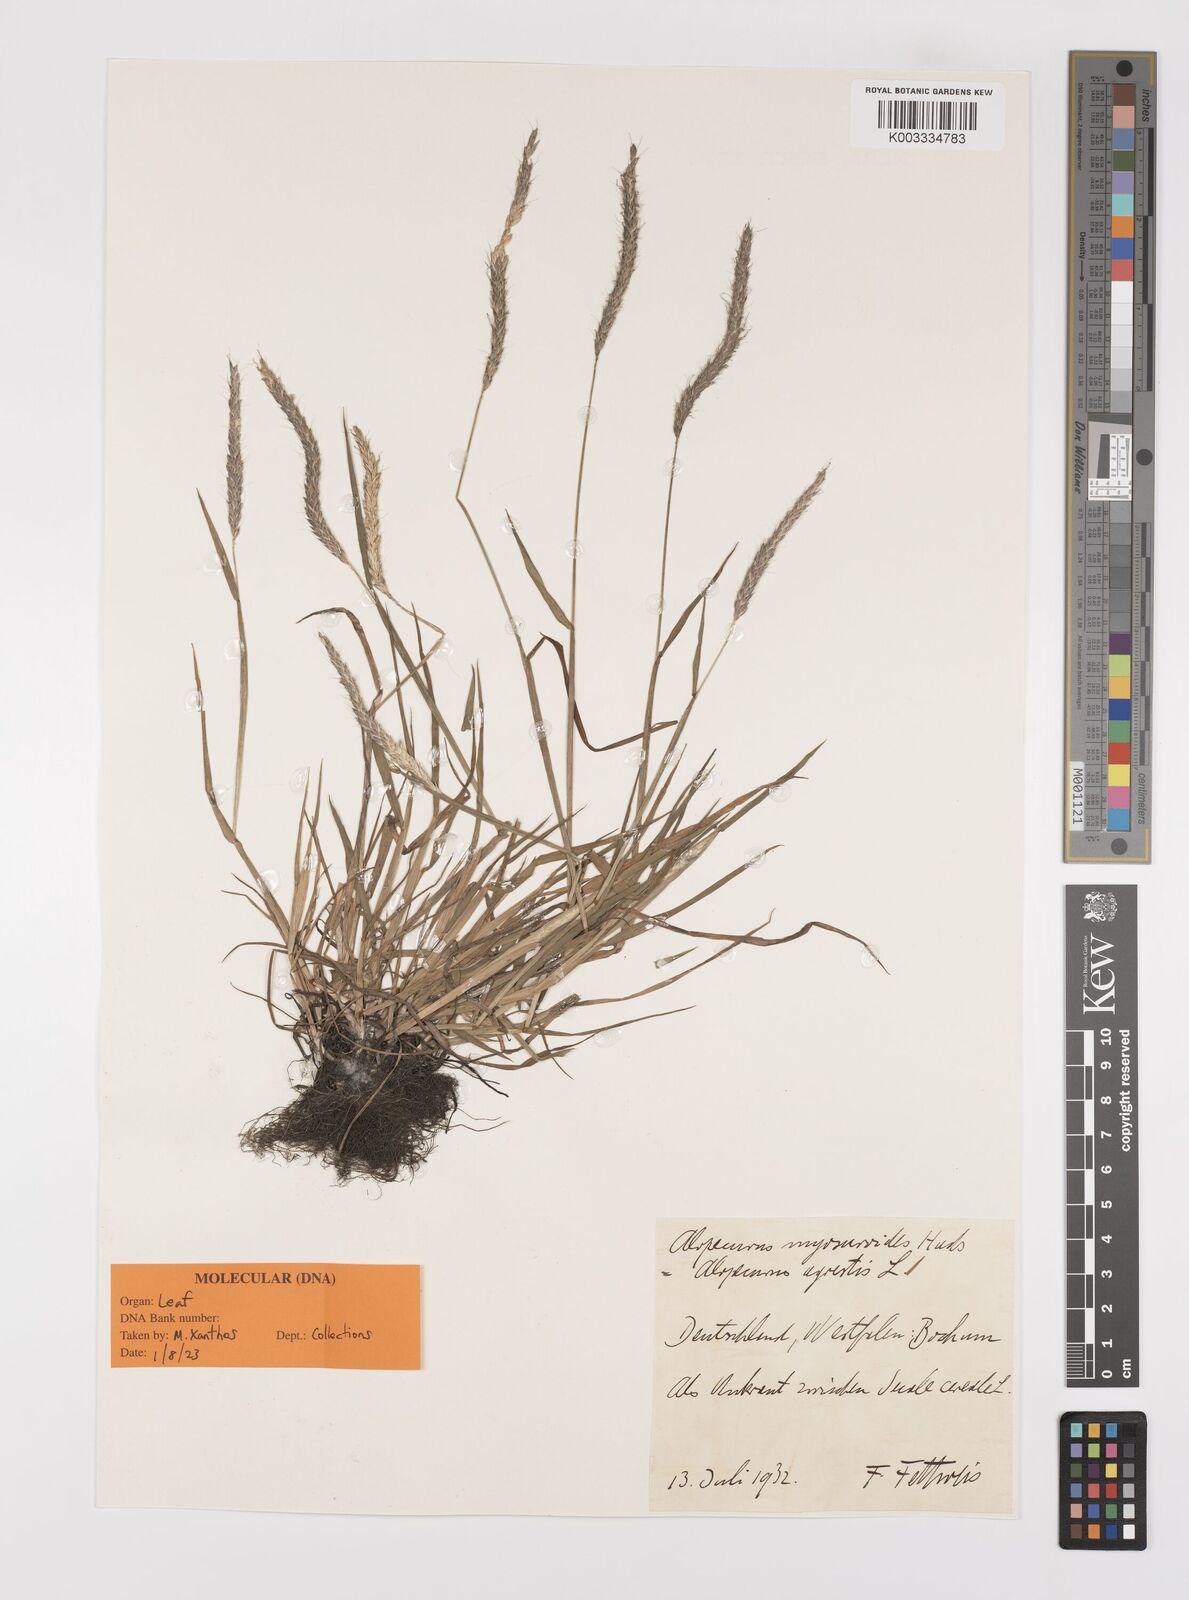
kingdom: Plantae
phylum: Tracheophyta
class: Liliopsida
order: Poales
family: Poaceae
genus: Alopecurus
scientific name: Alopecurus myosuroides
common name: Black-grass
